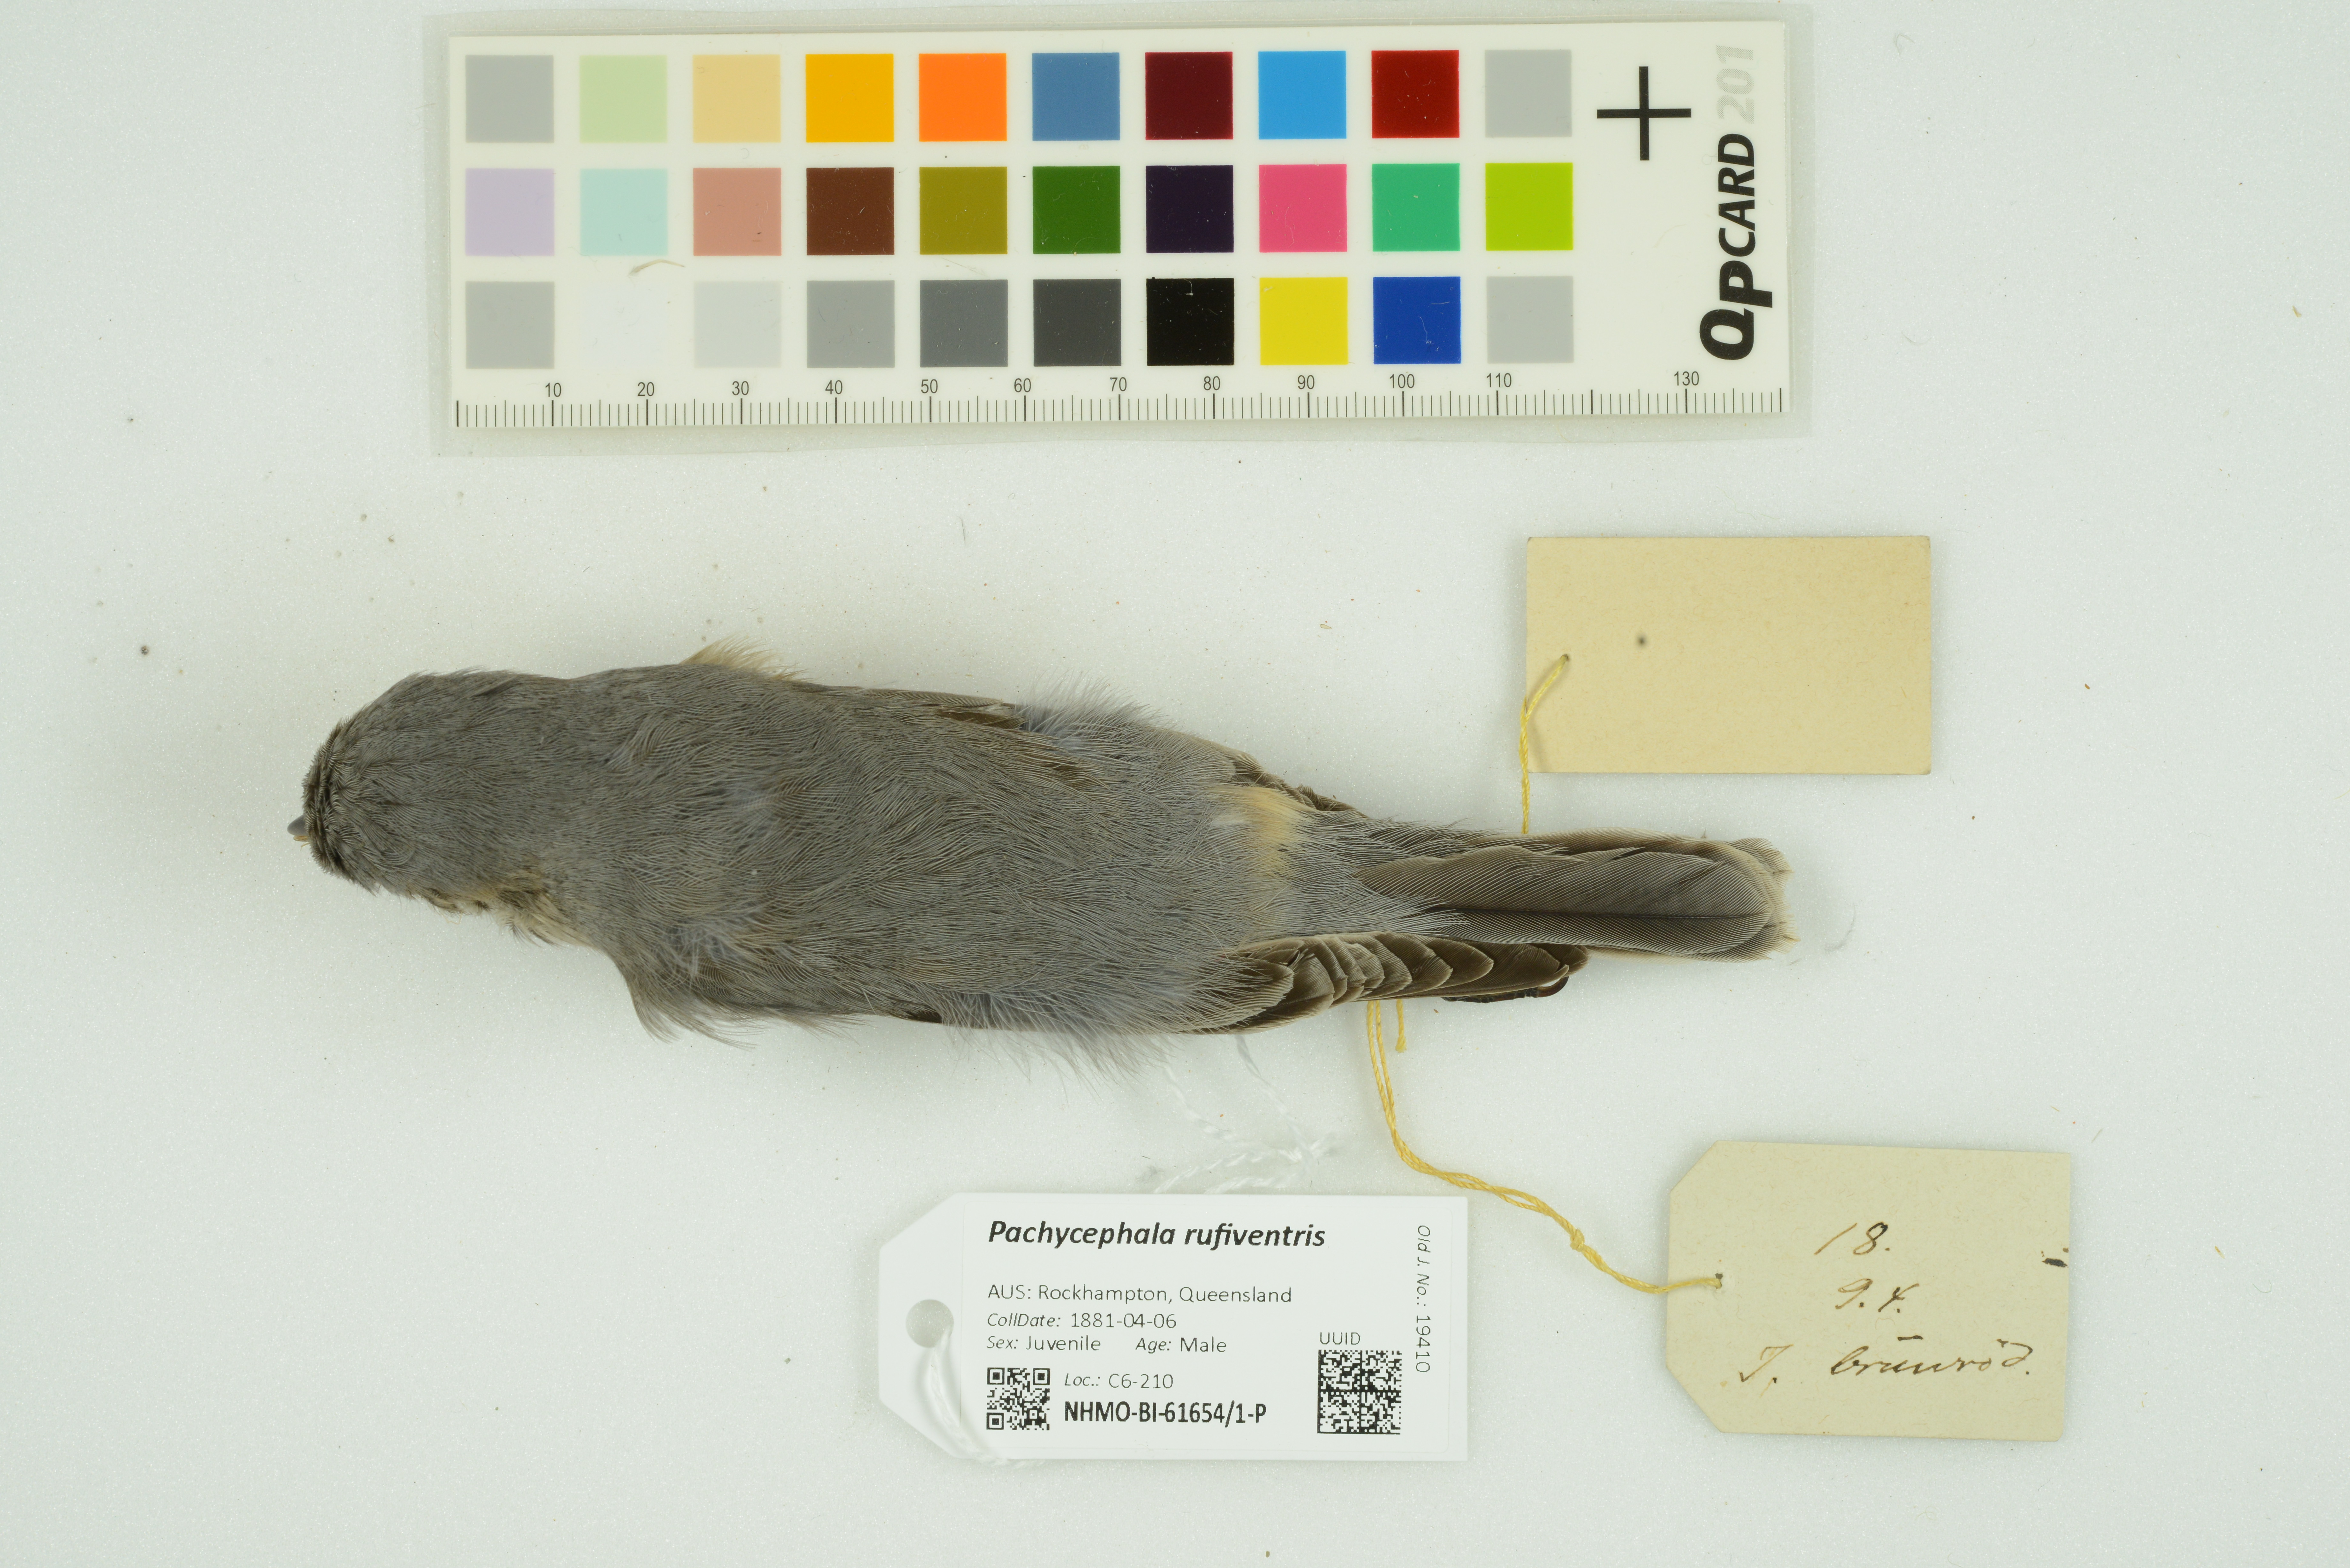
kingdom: Animalia
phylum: Chordata
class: Aves
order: Passeriformes
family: Pachycephalidae
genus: Pachycephala
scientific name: Pachycephala rufiventris
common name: Rufous whistler
